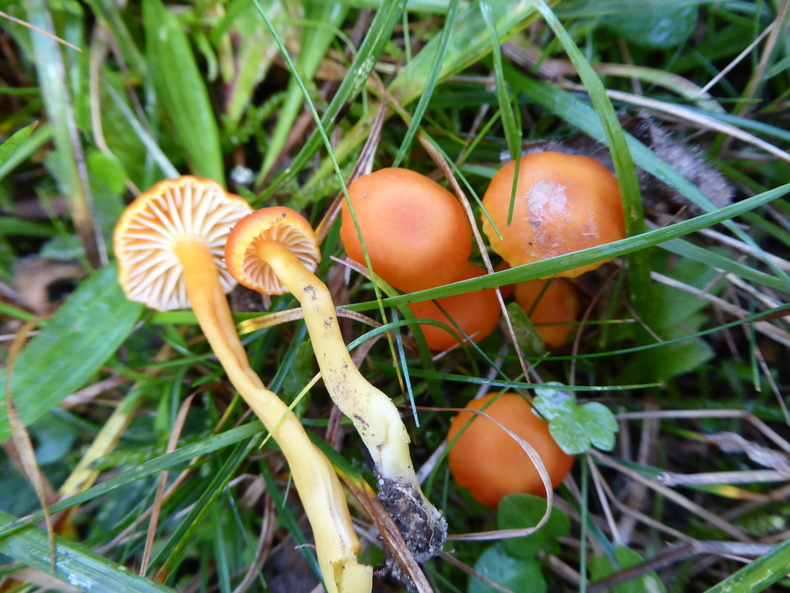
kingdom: Fungi
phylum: Basidiomycota
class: Agaricomycetes
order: Agaricales
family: Hygrophoraceae
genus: Hygrocybe
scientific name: Hygrocybe reidii
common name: honning-vokshat
